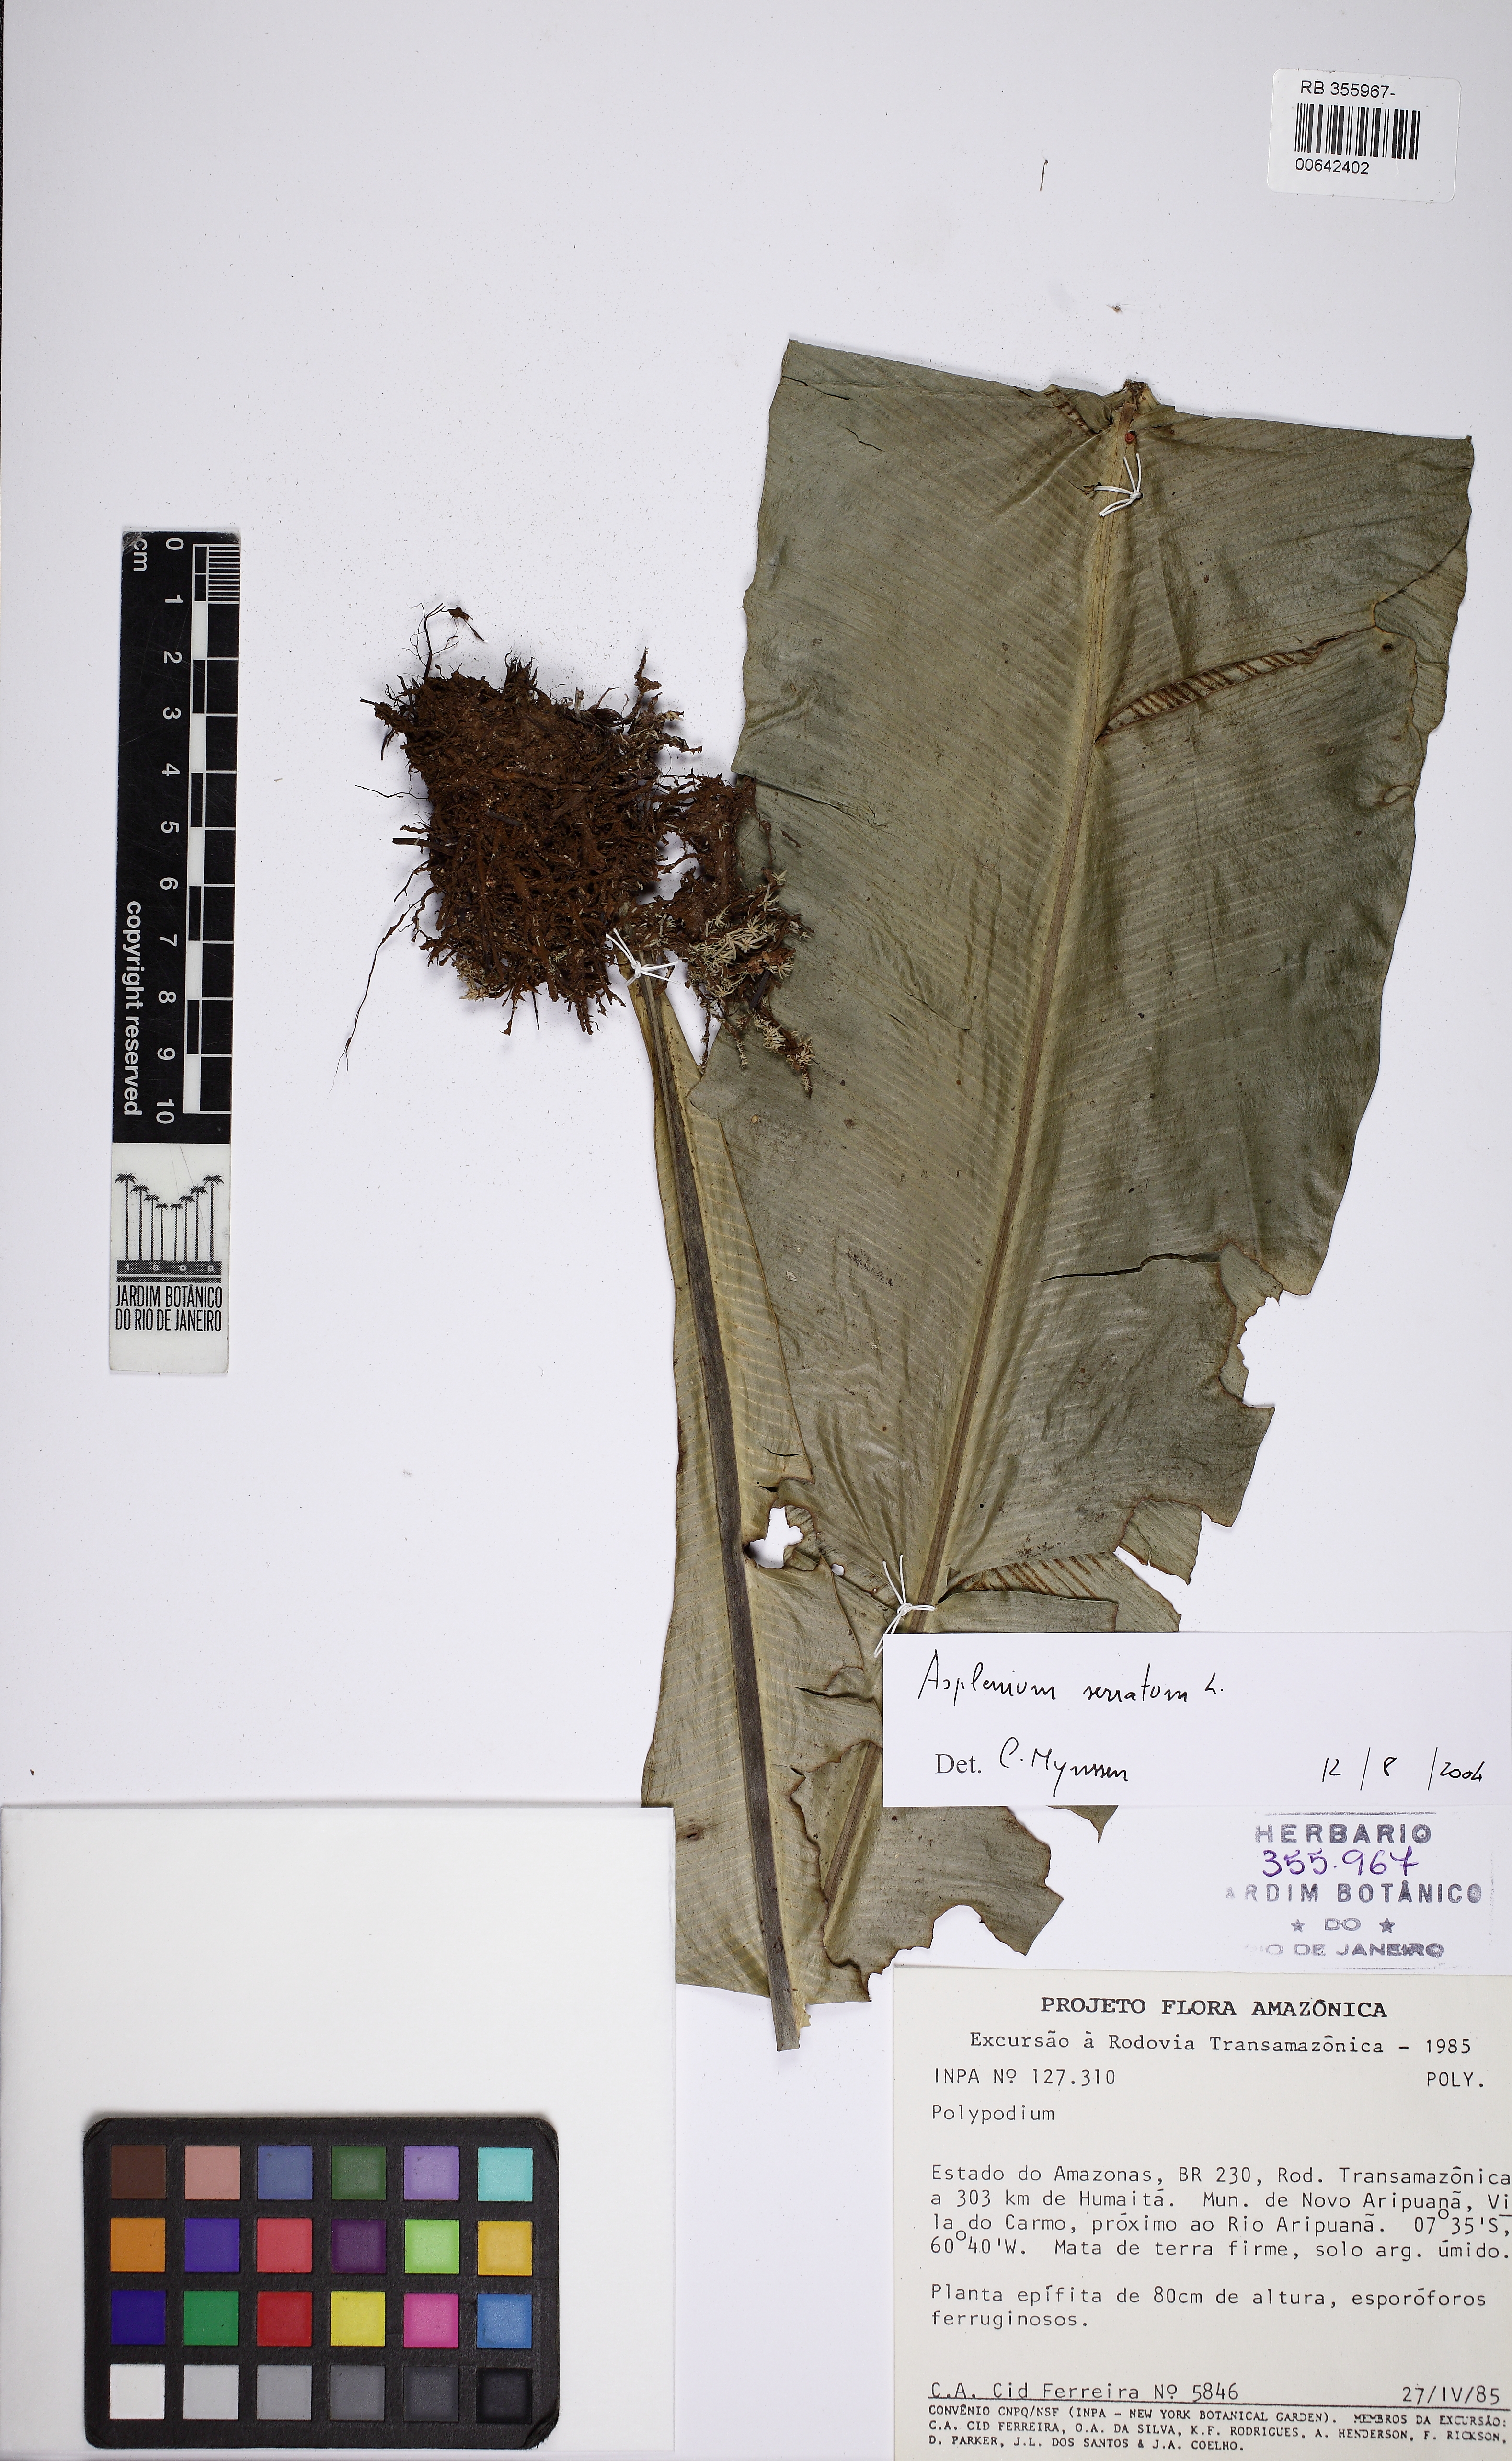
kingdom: Plantae
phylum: Tracheophyta
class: Polypodiopsida
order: Polypodiales
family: Aspleniaceae
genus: Asplenium
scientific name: Asplenium serratum
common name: Wild birdnest fern
